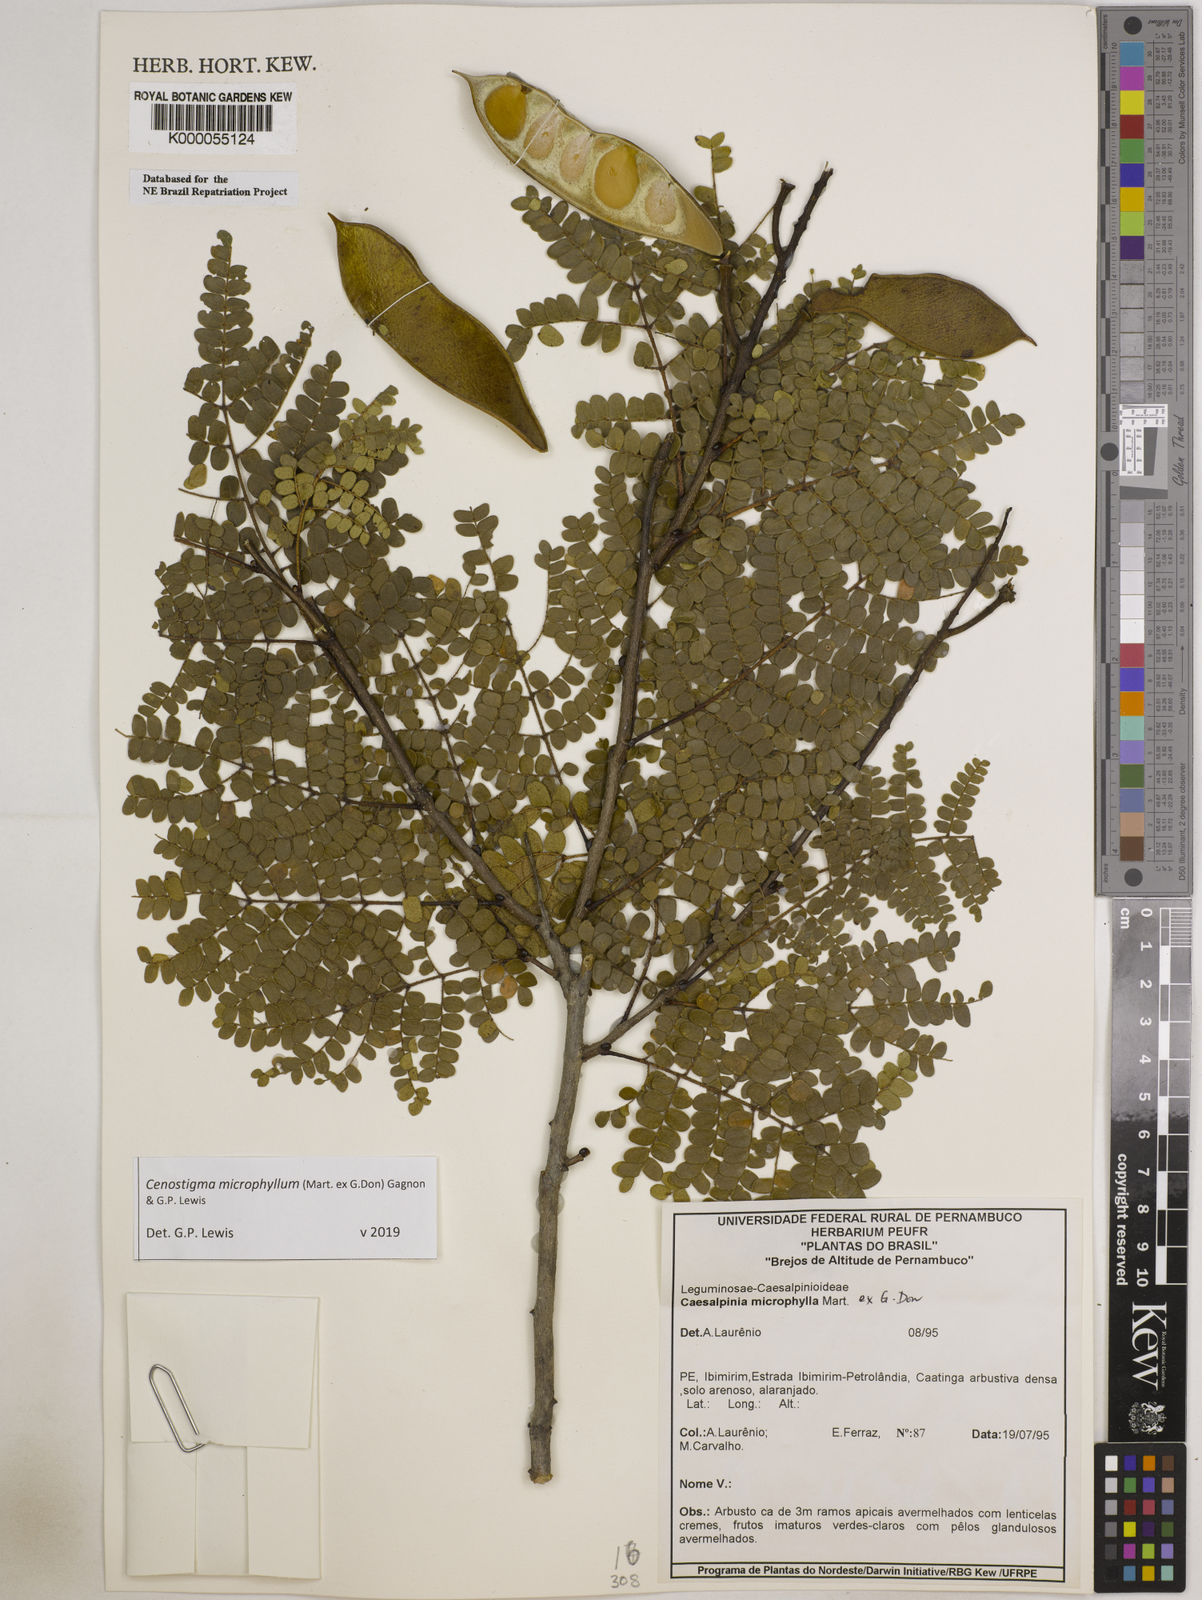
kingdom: Plantae
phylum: Tracheophyta
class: Magnoliopsida
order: Fabales
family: Fabaceae
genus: Cenostigma
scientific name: Cenostigma microphyllum
